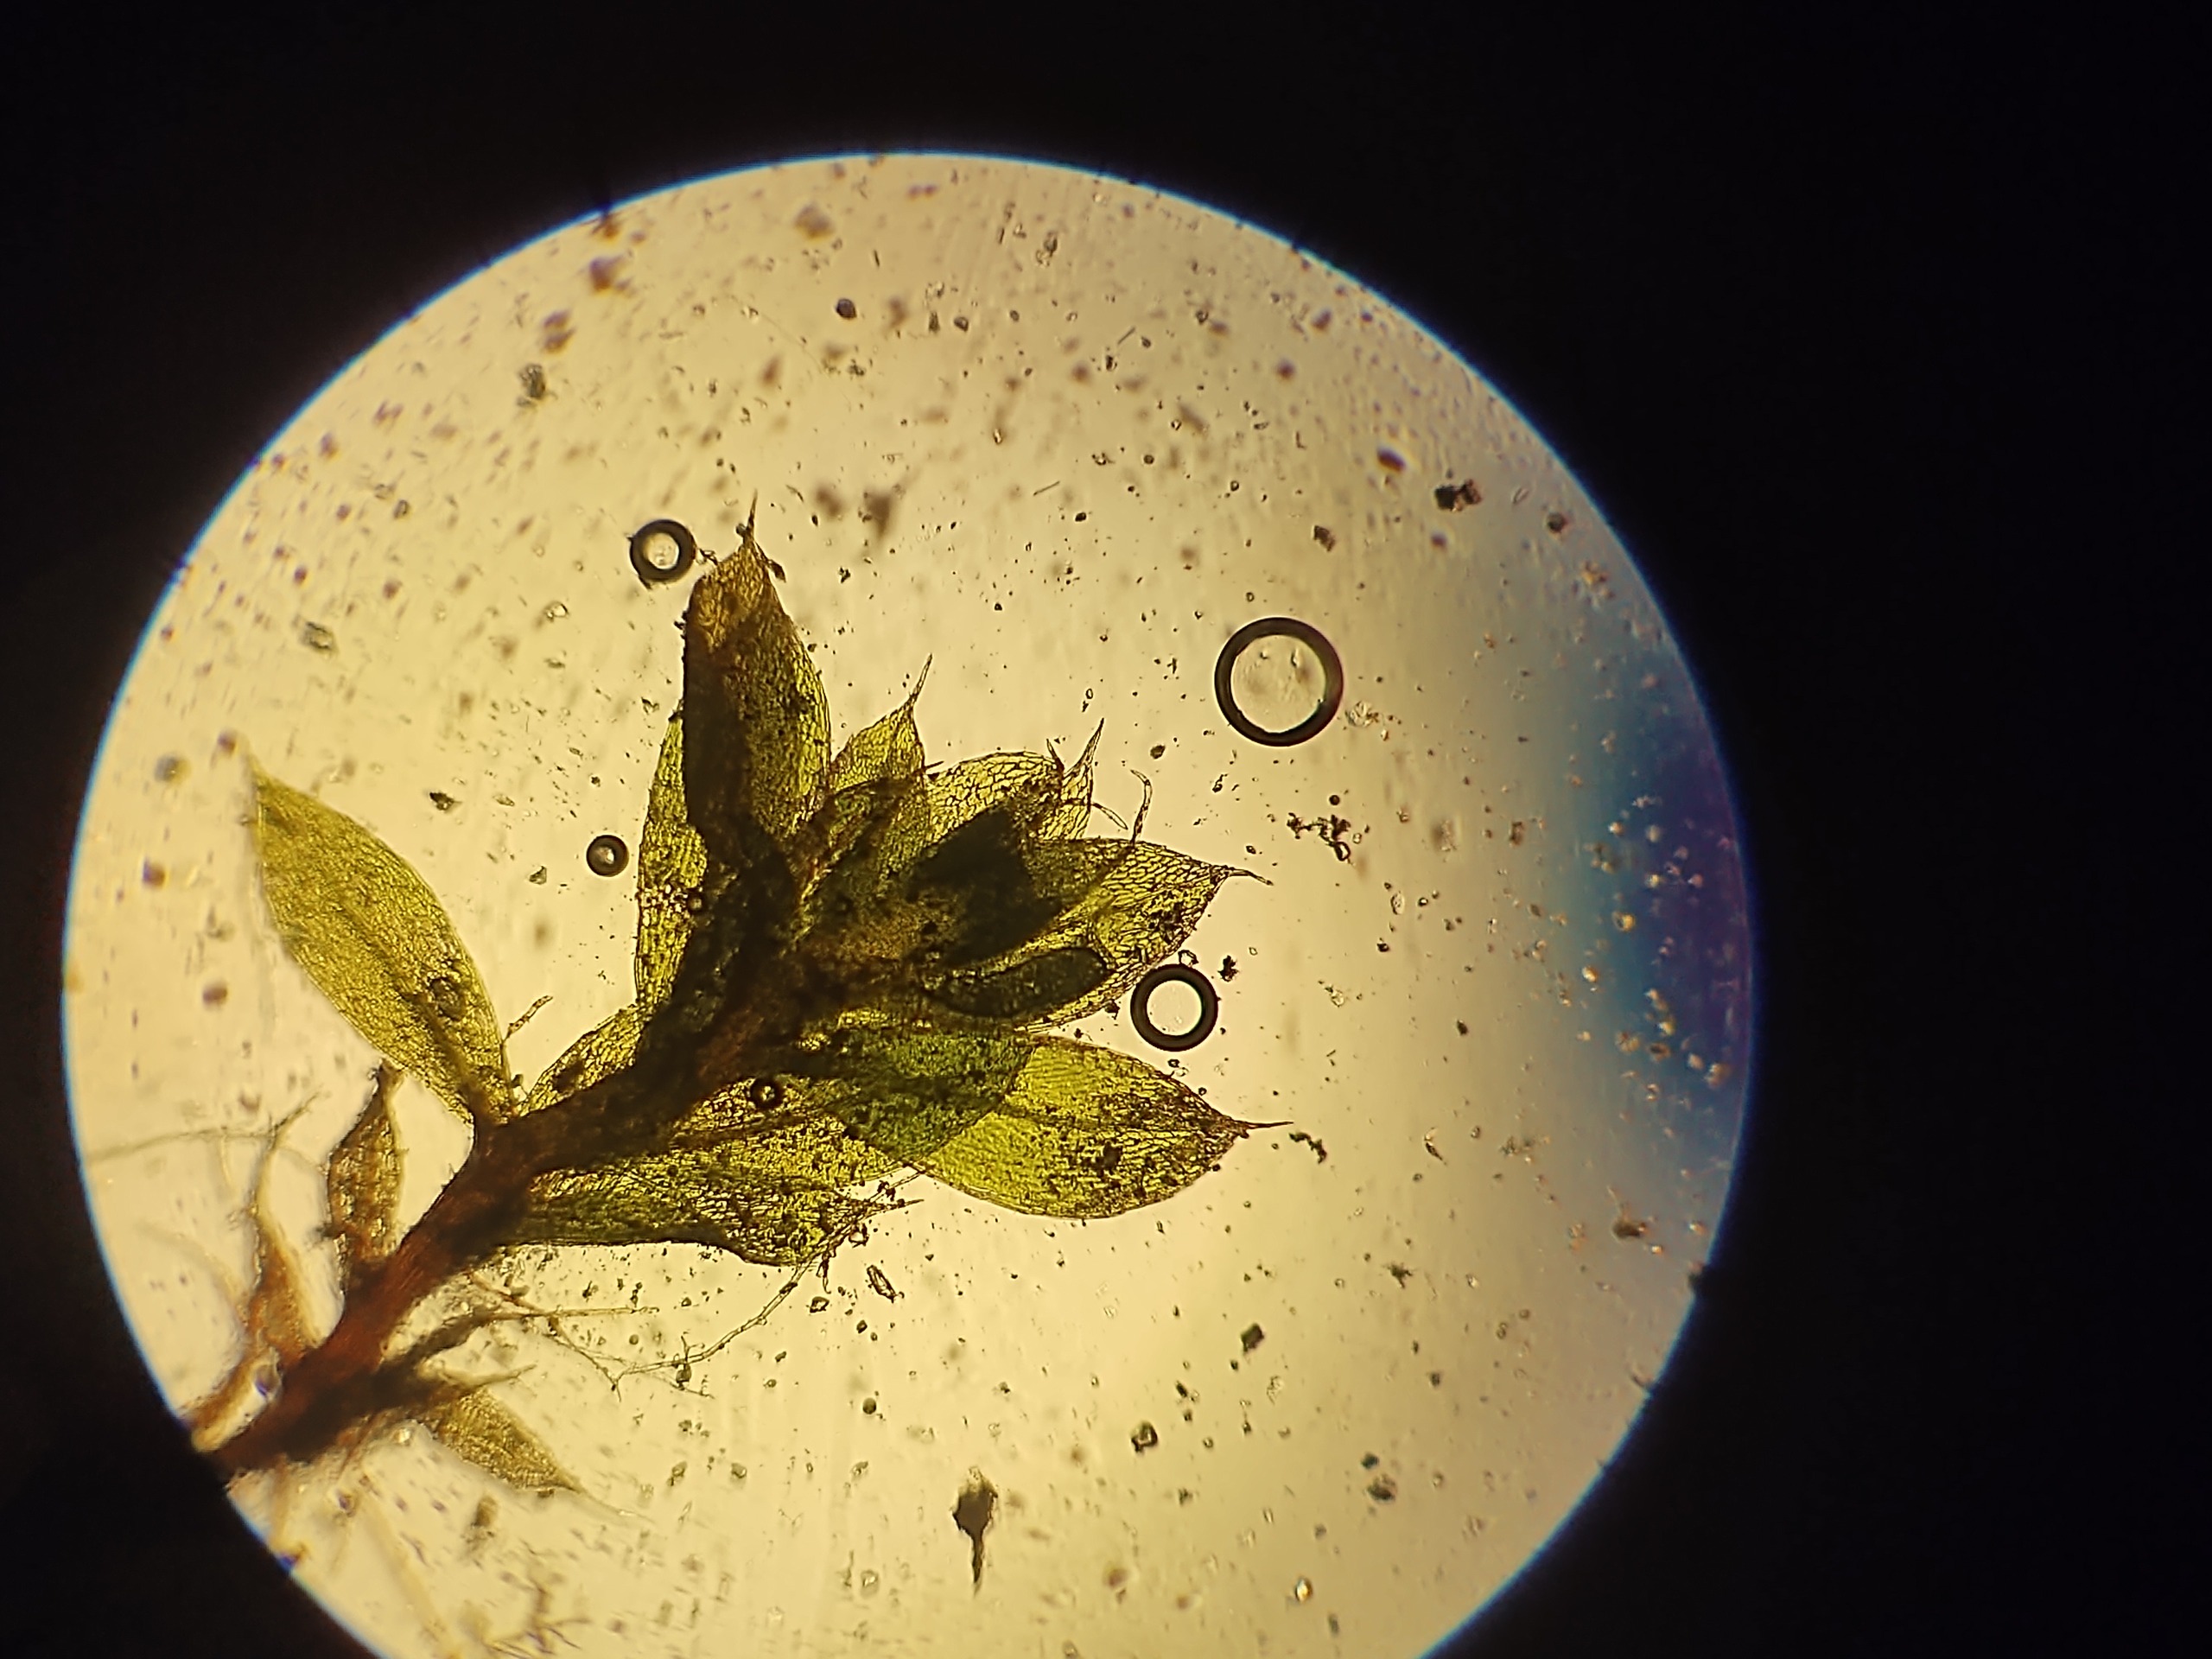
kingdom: Plantae
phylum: Bryophyta
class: Bryopsida
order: Bryales
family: Bryaceae
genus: Rosulabryum
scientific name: Rosulabryum capillare
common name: Hårspidset bryum
